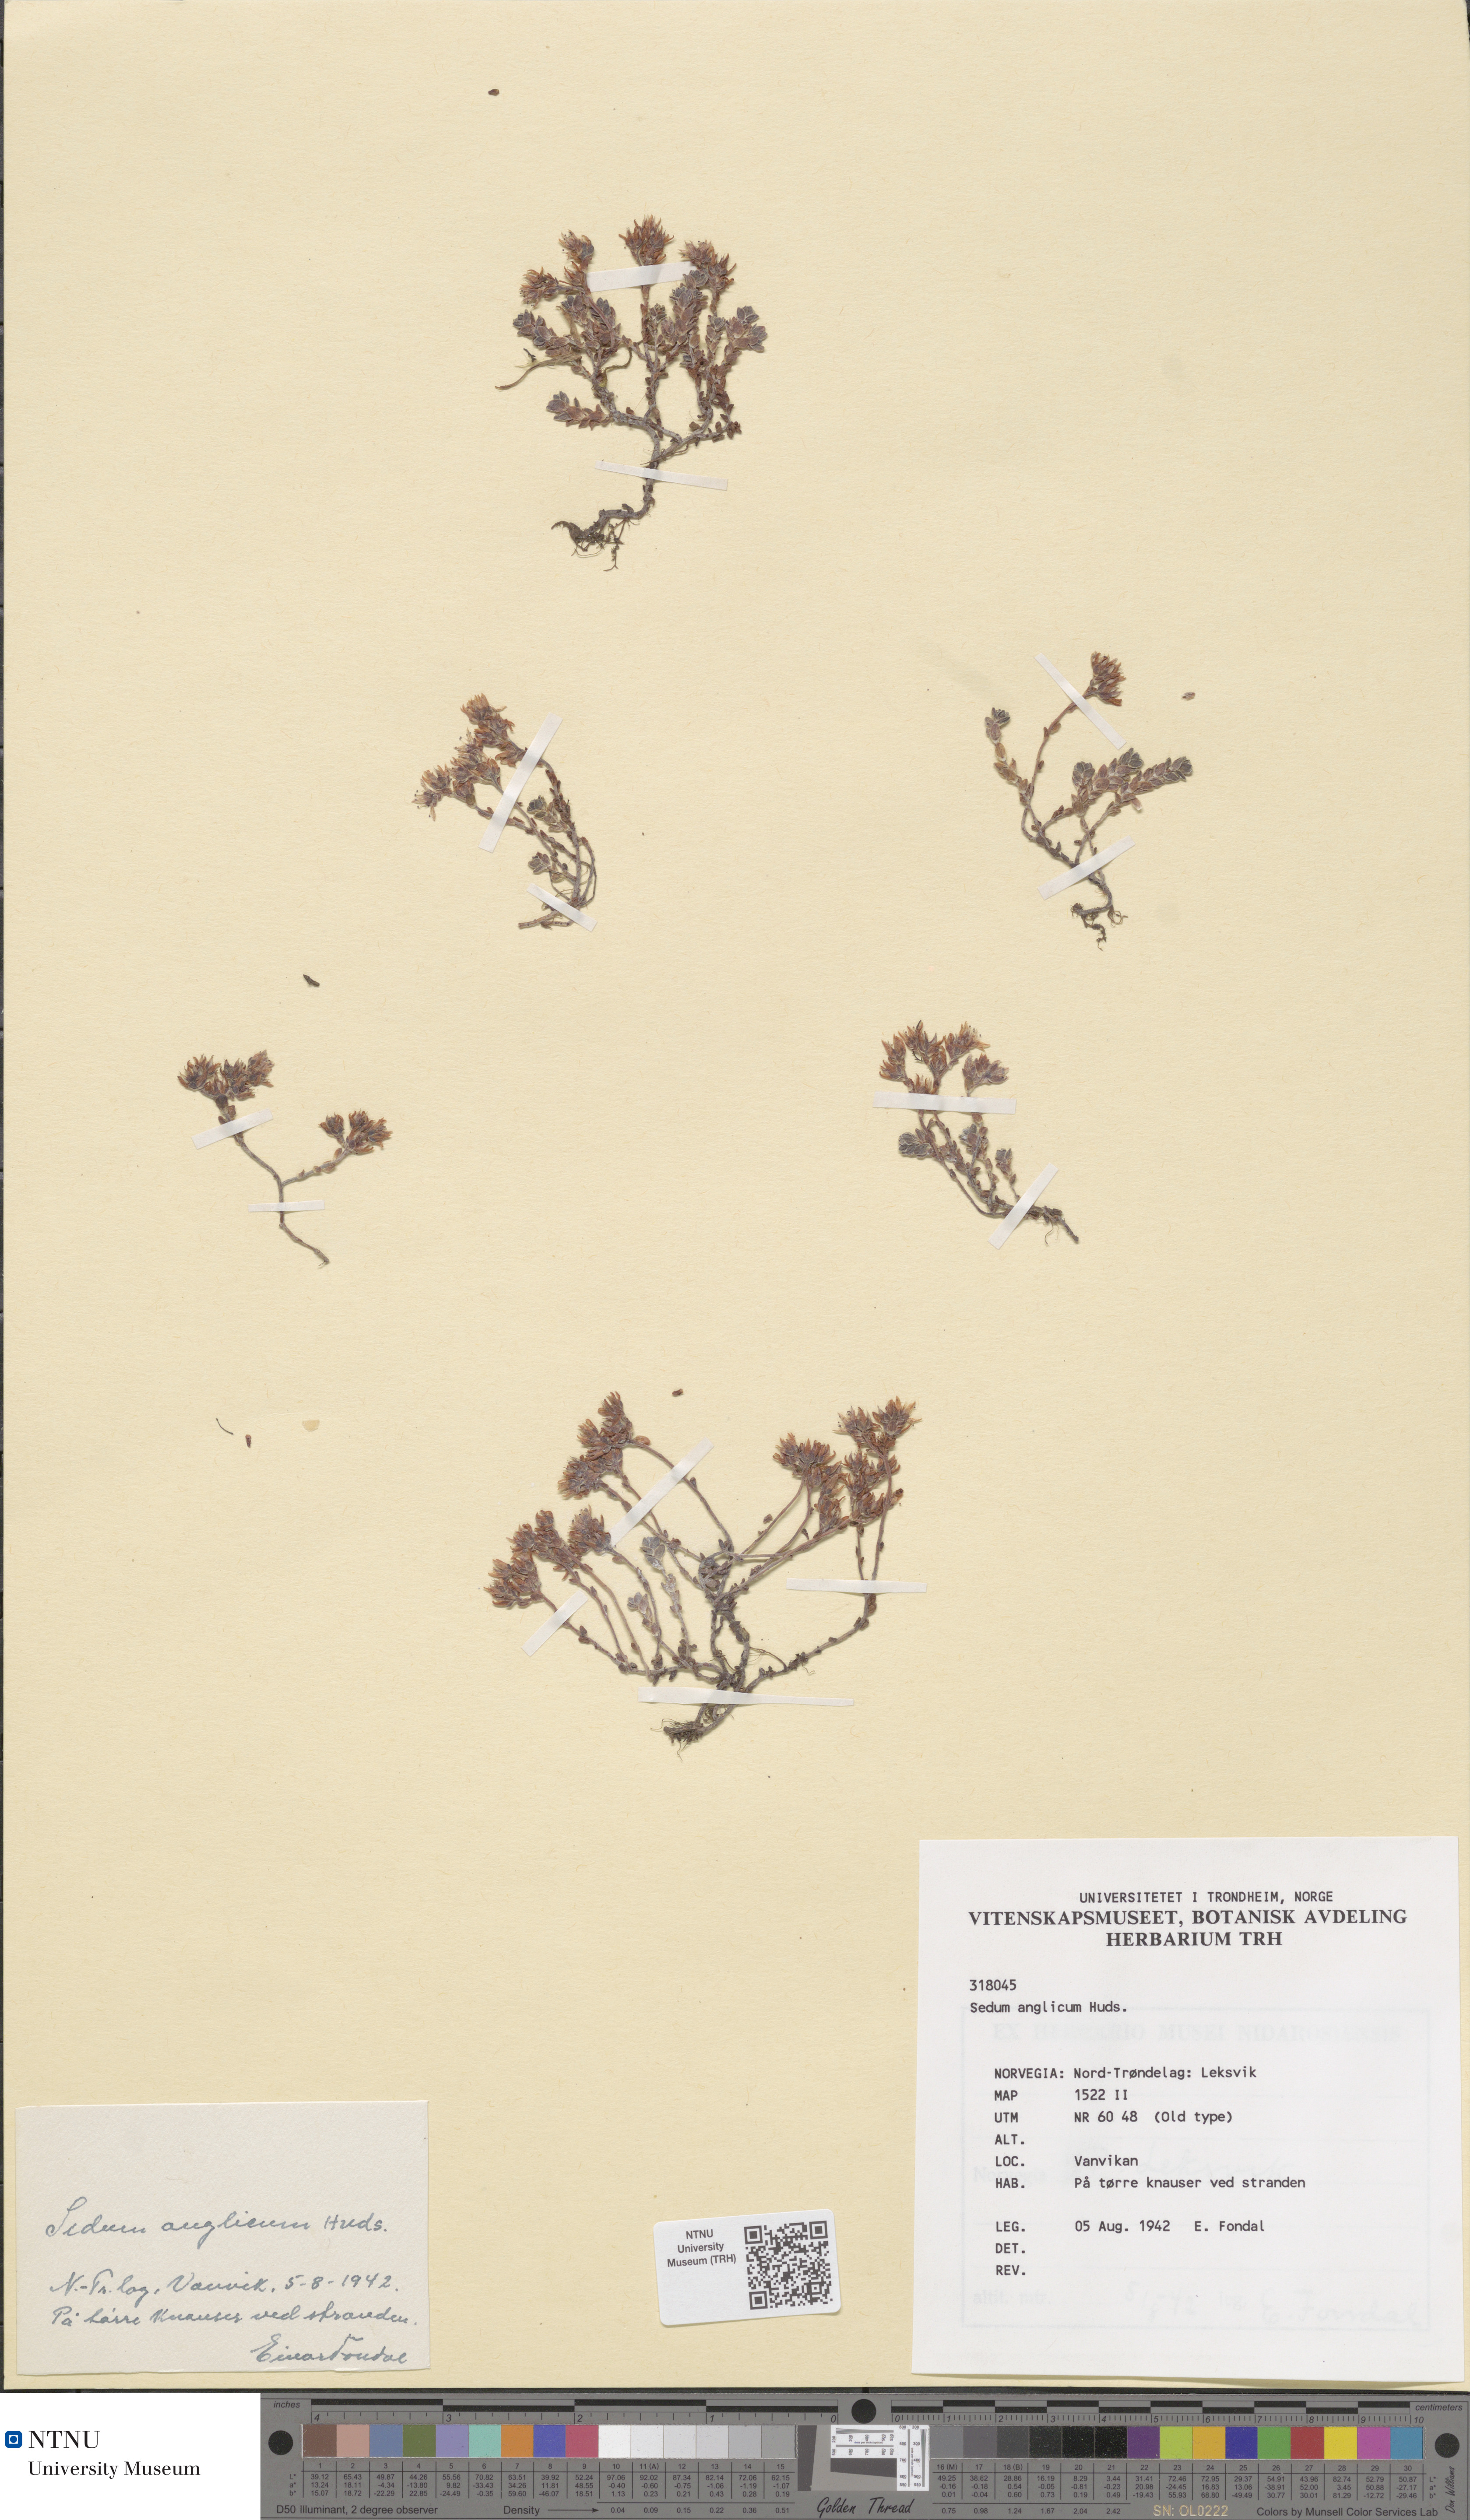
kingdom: Plantae
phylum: Tracheophyta
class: Magnoliopsida
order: Saxifragales
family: Crassulaceae
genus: Sedum
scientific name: Sedum anglicum
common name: English stonecrop
